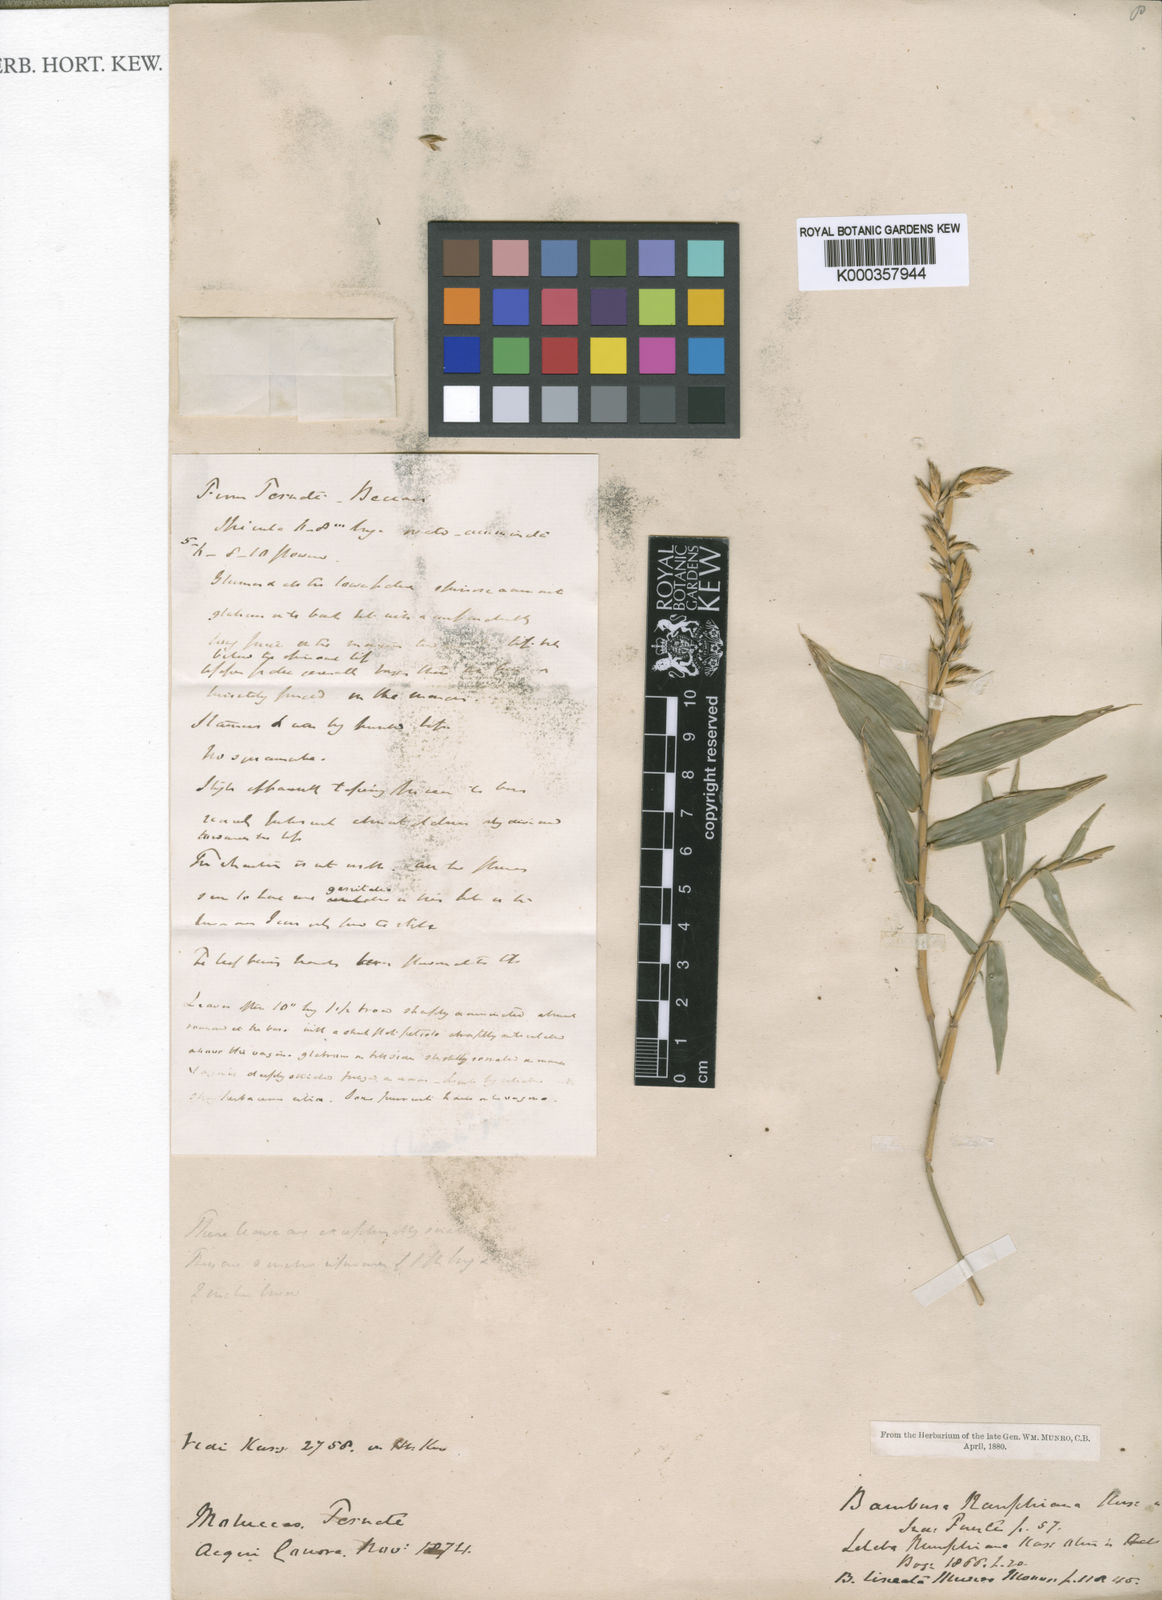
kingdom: Plantae
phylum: Tracheophyta
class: Liliopsida
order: Poales
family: Poaceae
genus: Neololeba
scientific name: Neololeba amahussana
